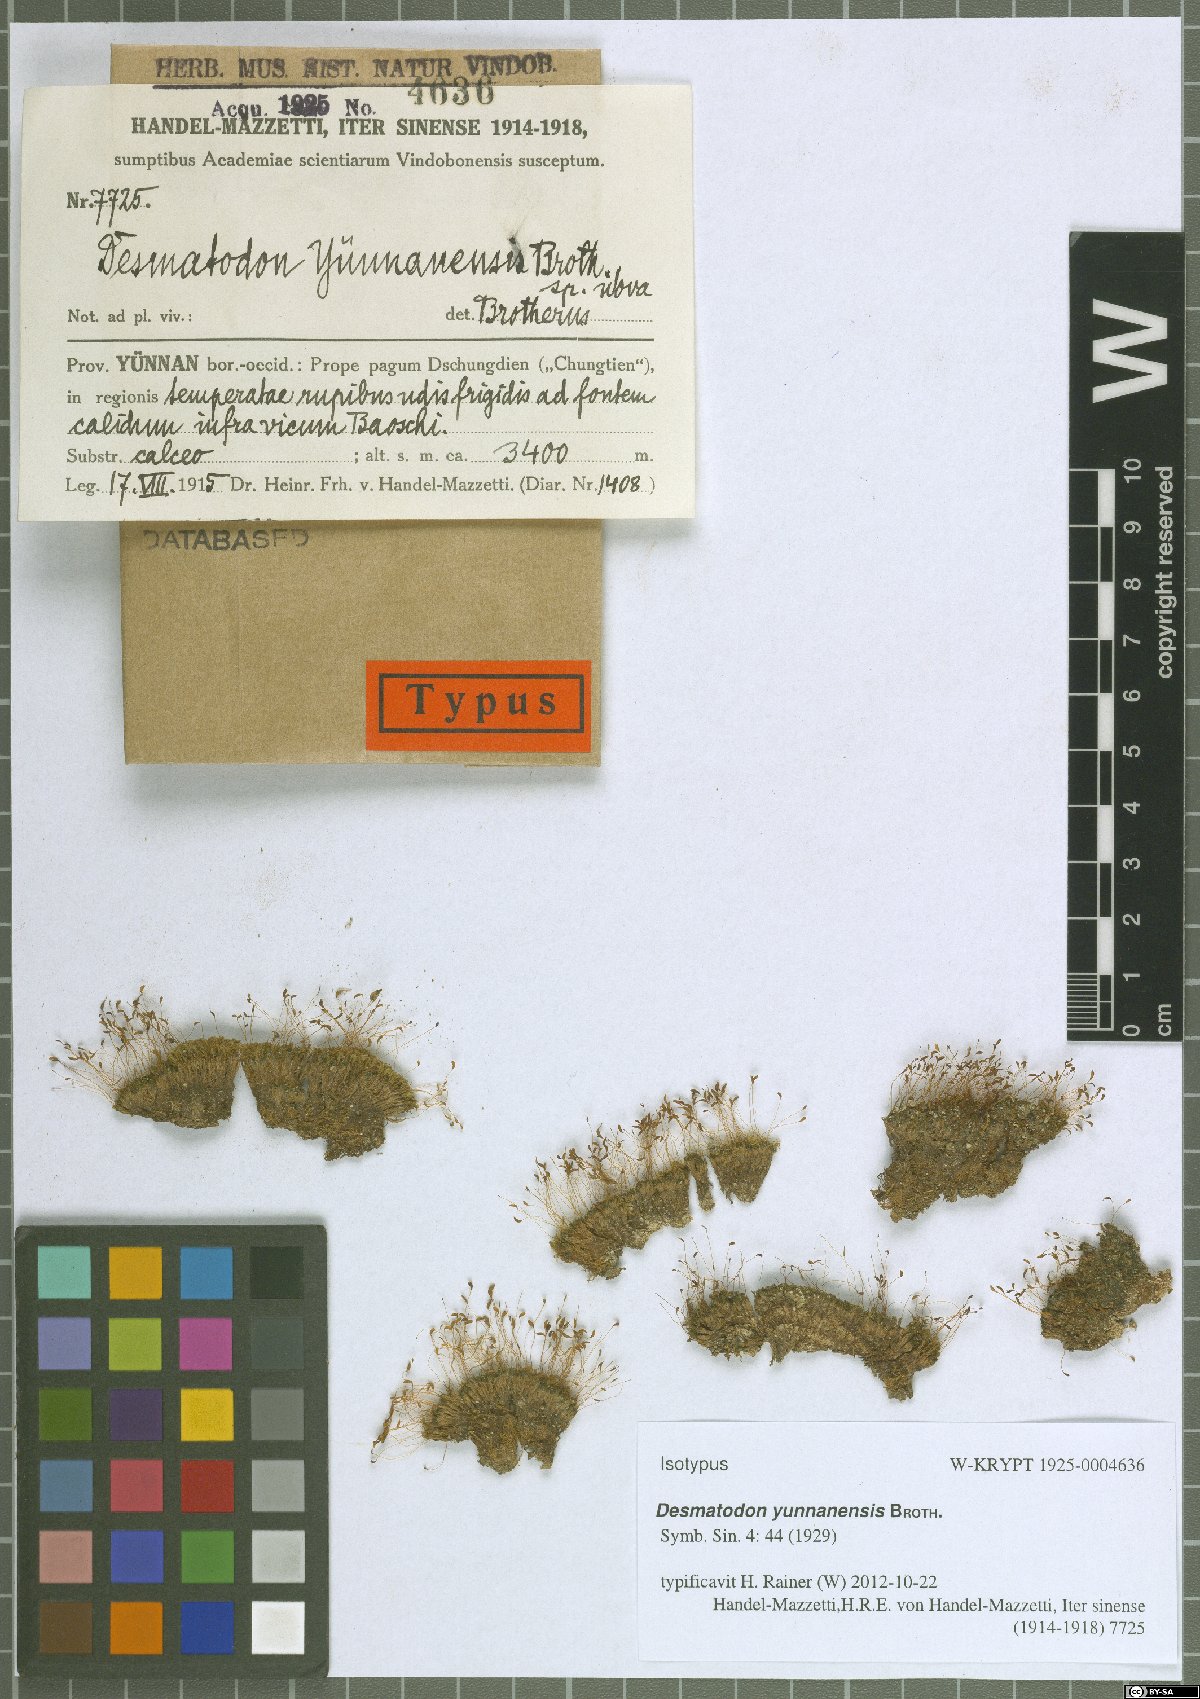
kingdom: Animalia
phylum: Chordata
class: Amphibia
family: Diadectidae
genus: Desmatodon
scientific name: Desmatodon
